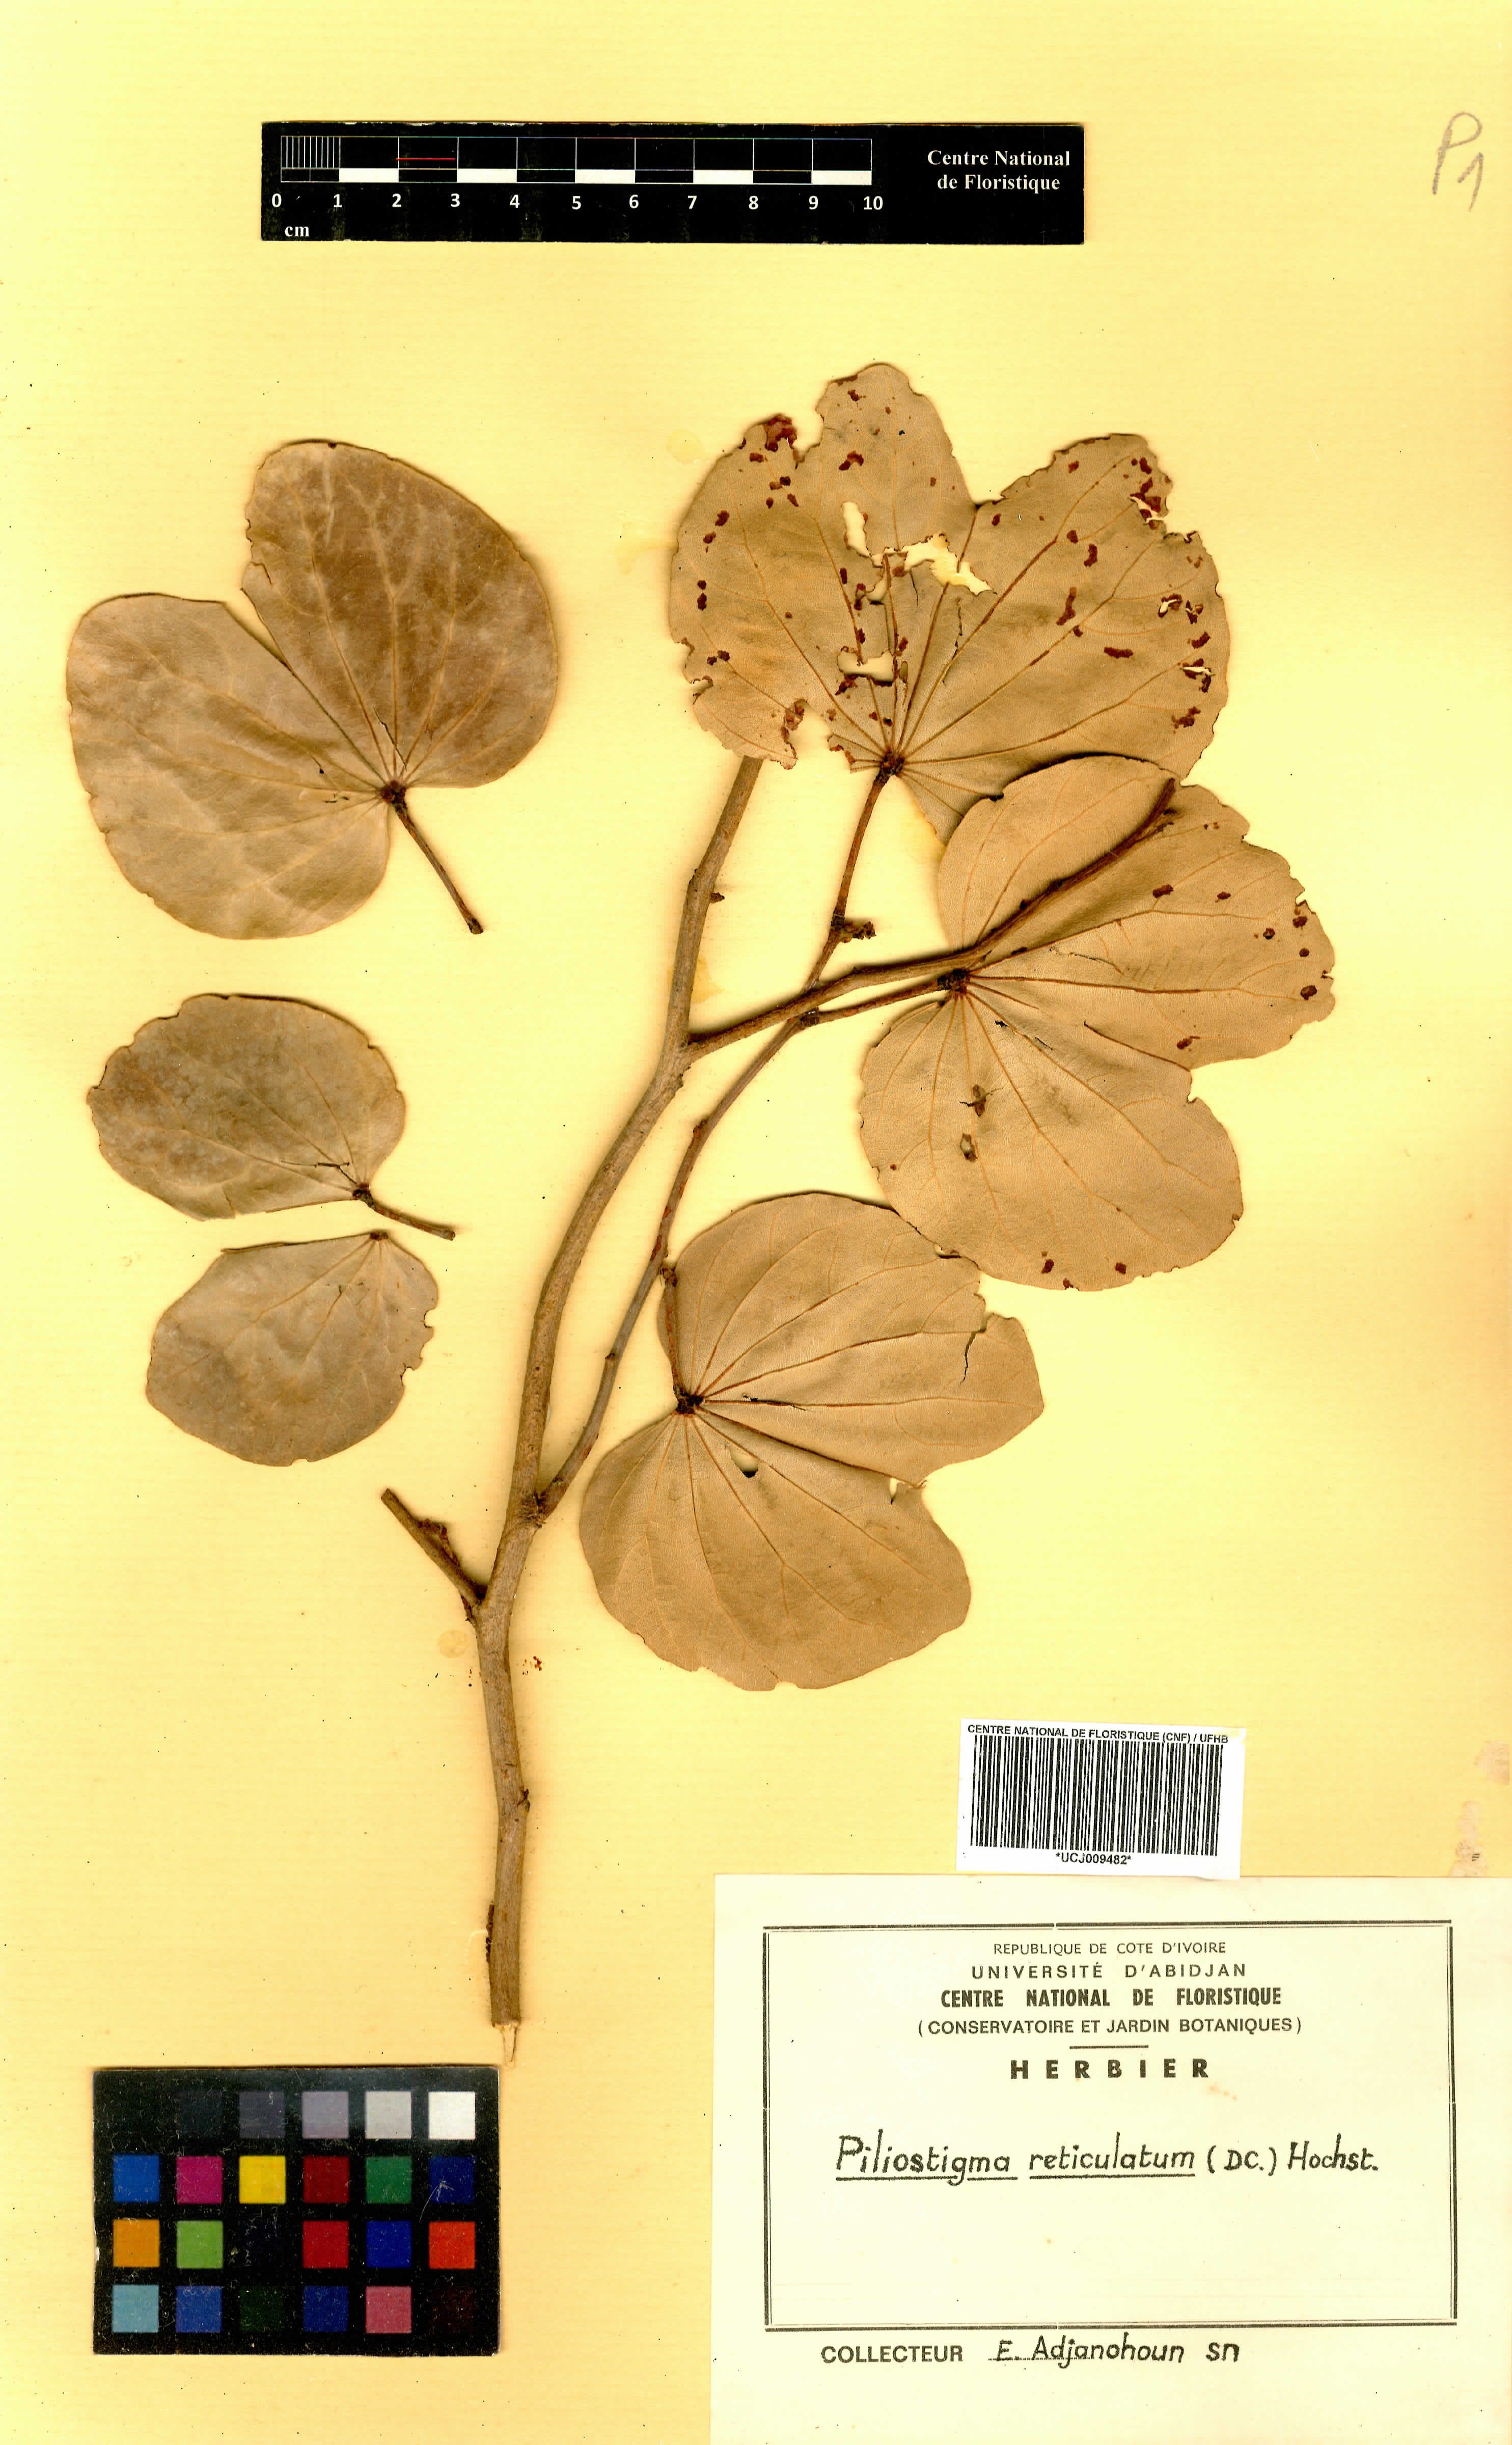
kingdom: Plantae
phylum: Tracheophyta
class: Magnoliopsida
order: Fabales
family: Fabaceae
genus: Piliostigma
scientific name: Piliostigma reticulatum
